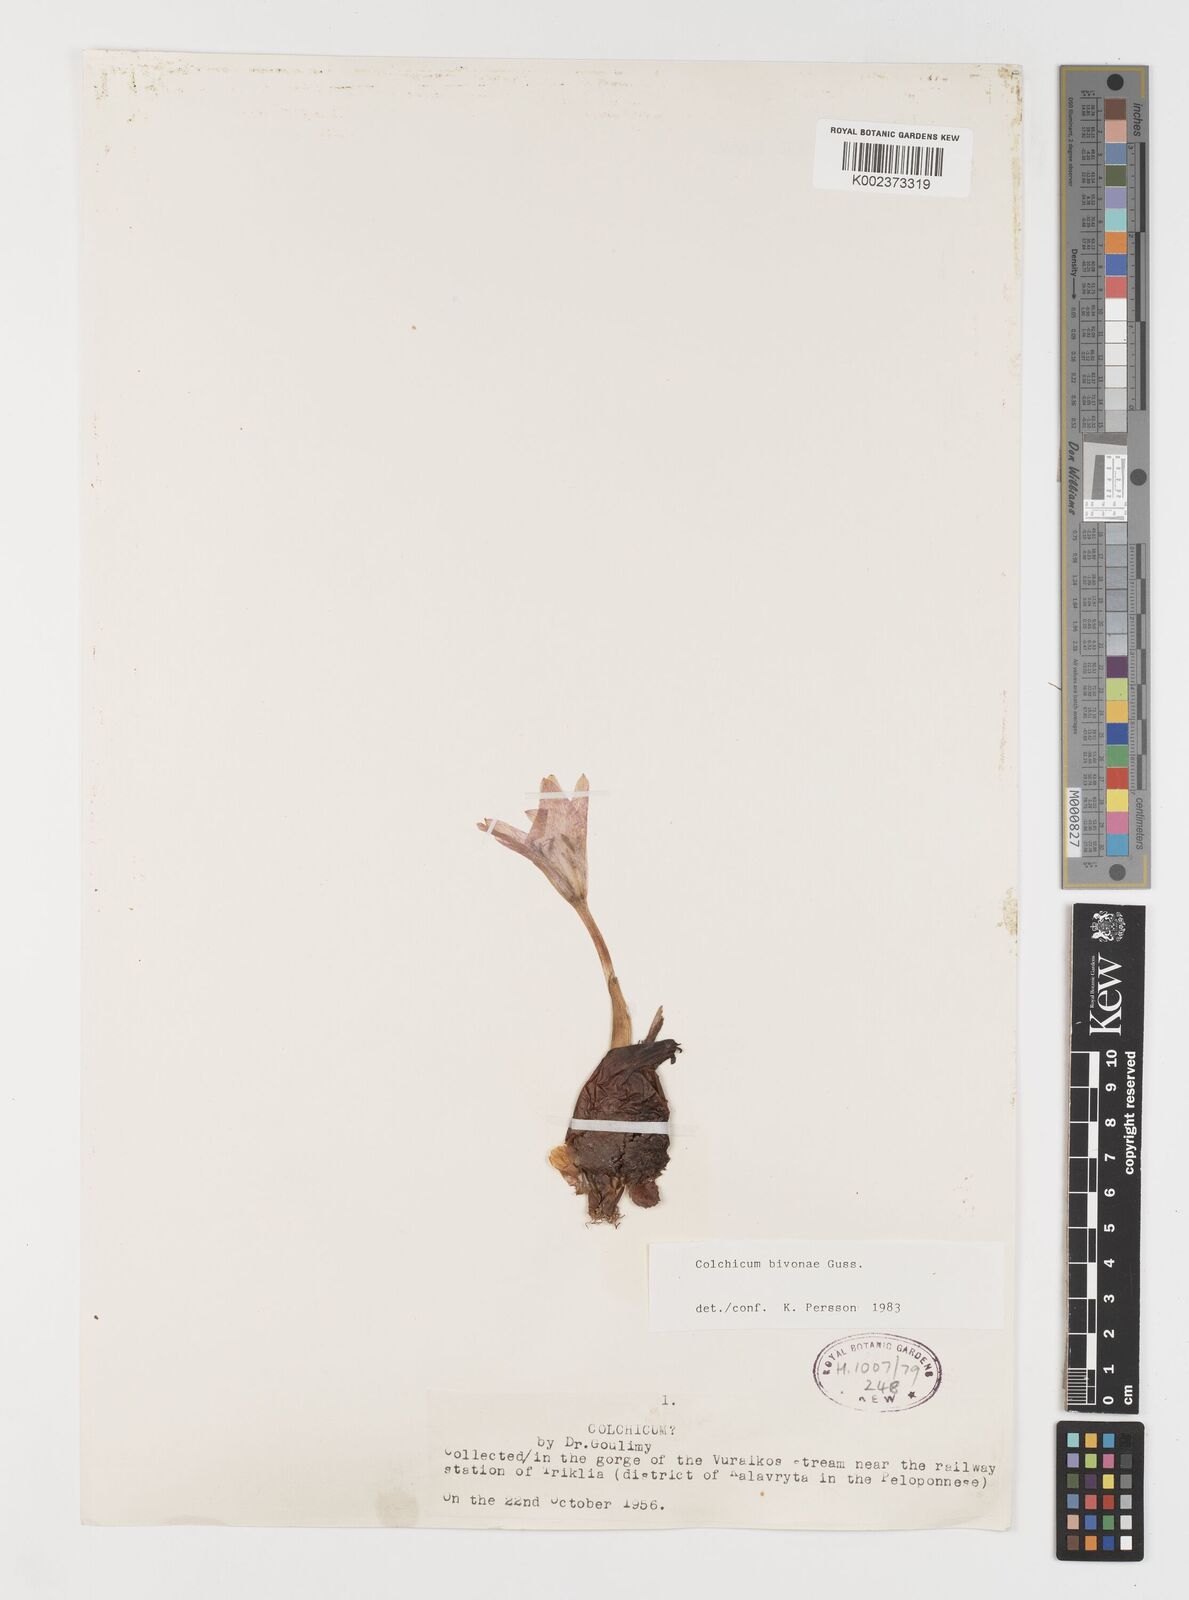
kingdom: Plantae
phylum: Tracheophyta
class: Liliopsida
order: Liliales
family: Colchicaceae
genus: Colchicum
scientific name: Colchicum bivonae
